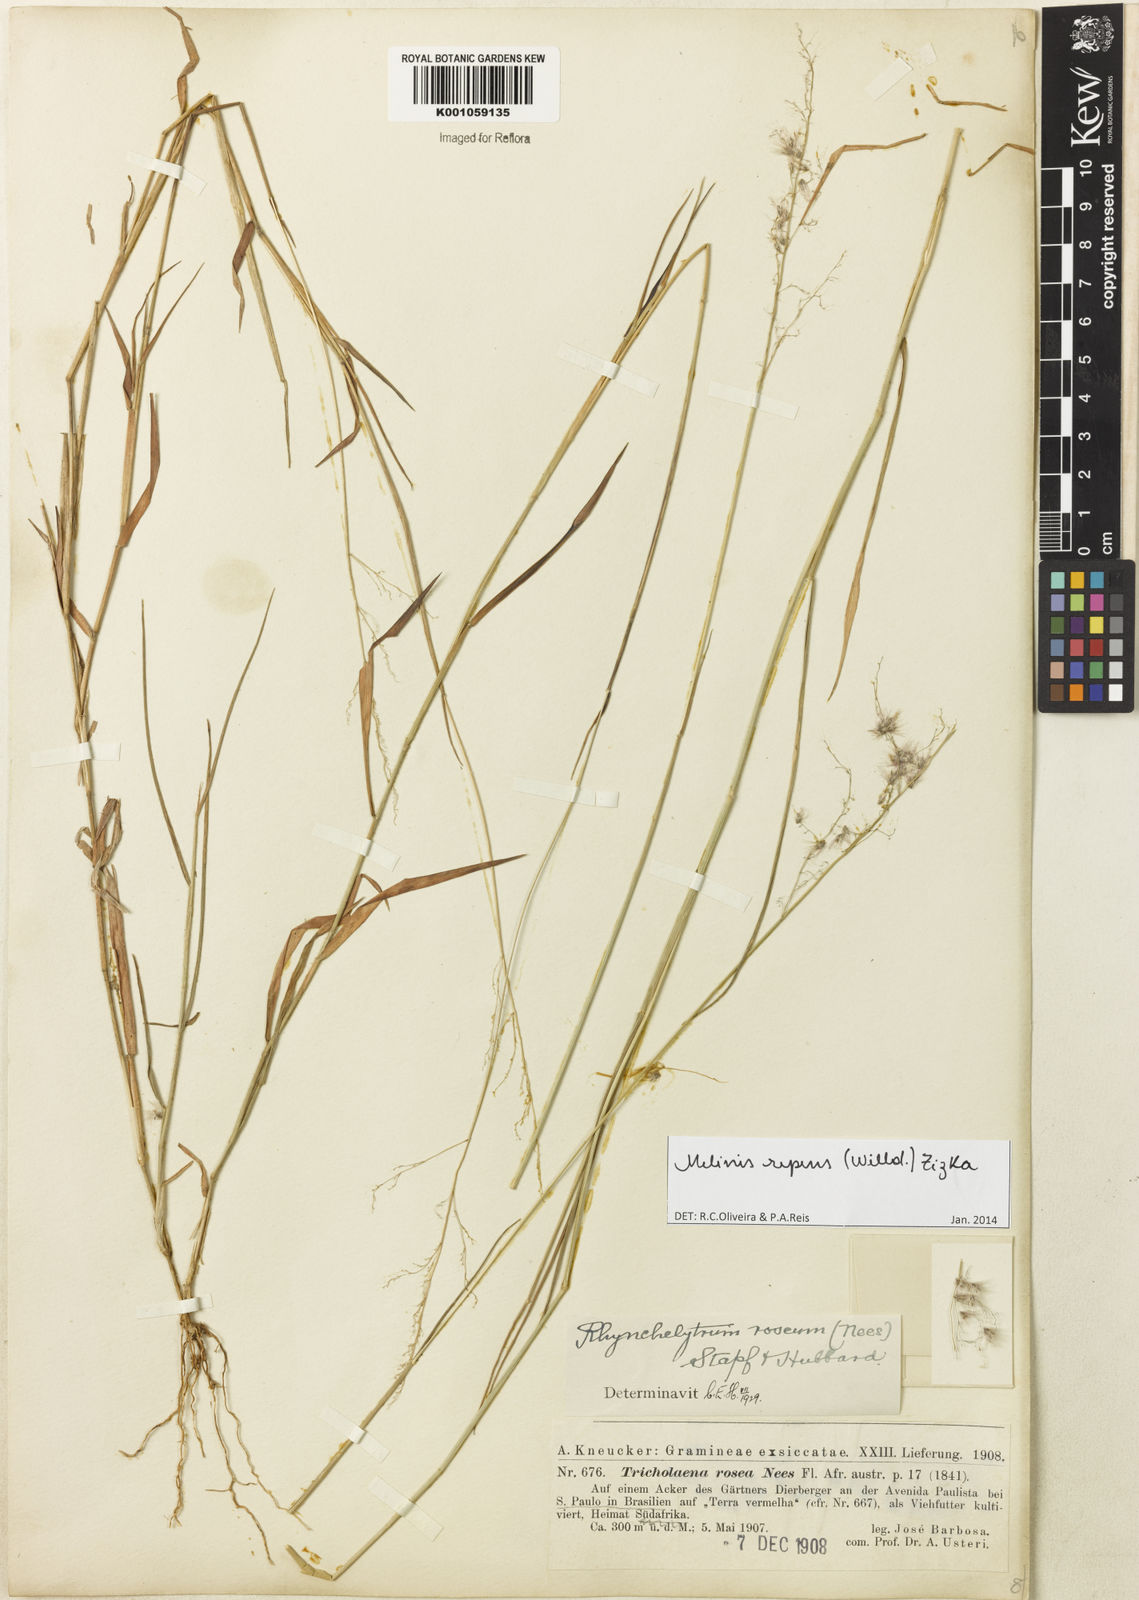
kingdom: Plantae
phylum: Tracheophyta
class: Liliopsida
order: Poales
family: Poaceae
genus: Melinis
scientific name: Melinis repens
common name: Rose natal grass
